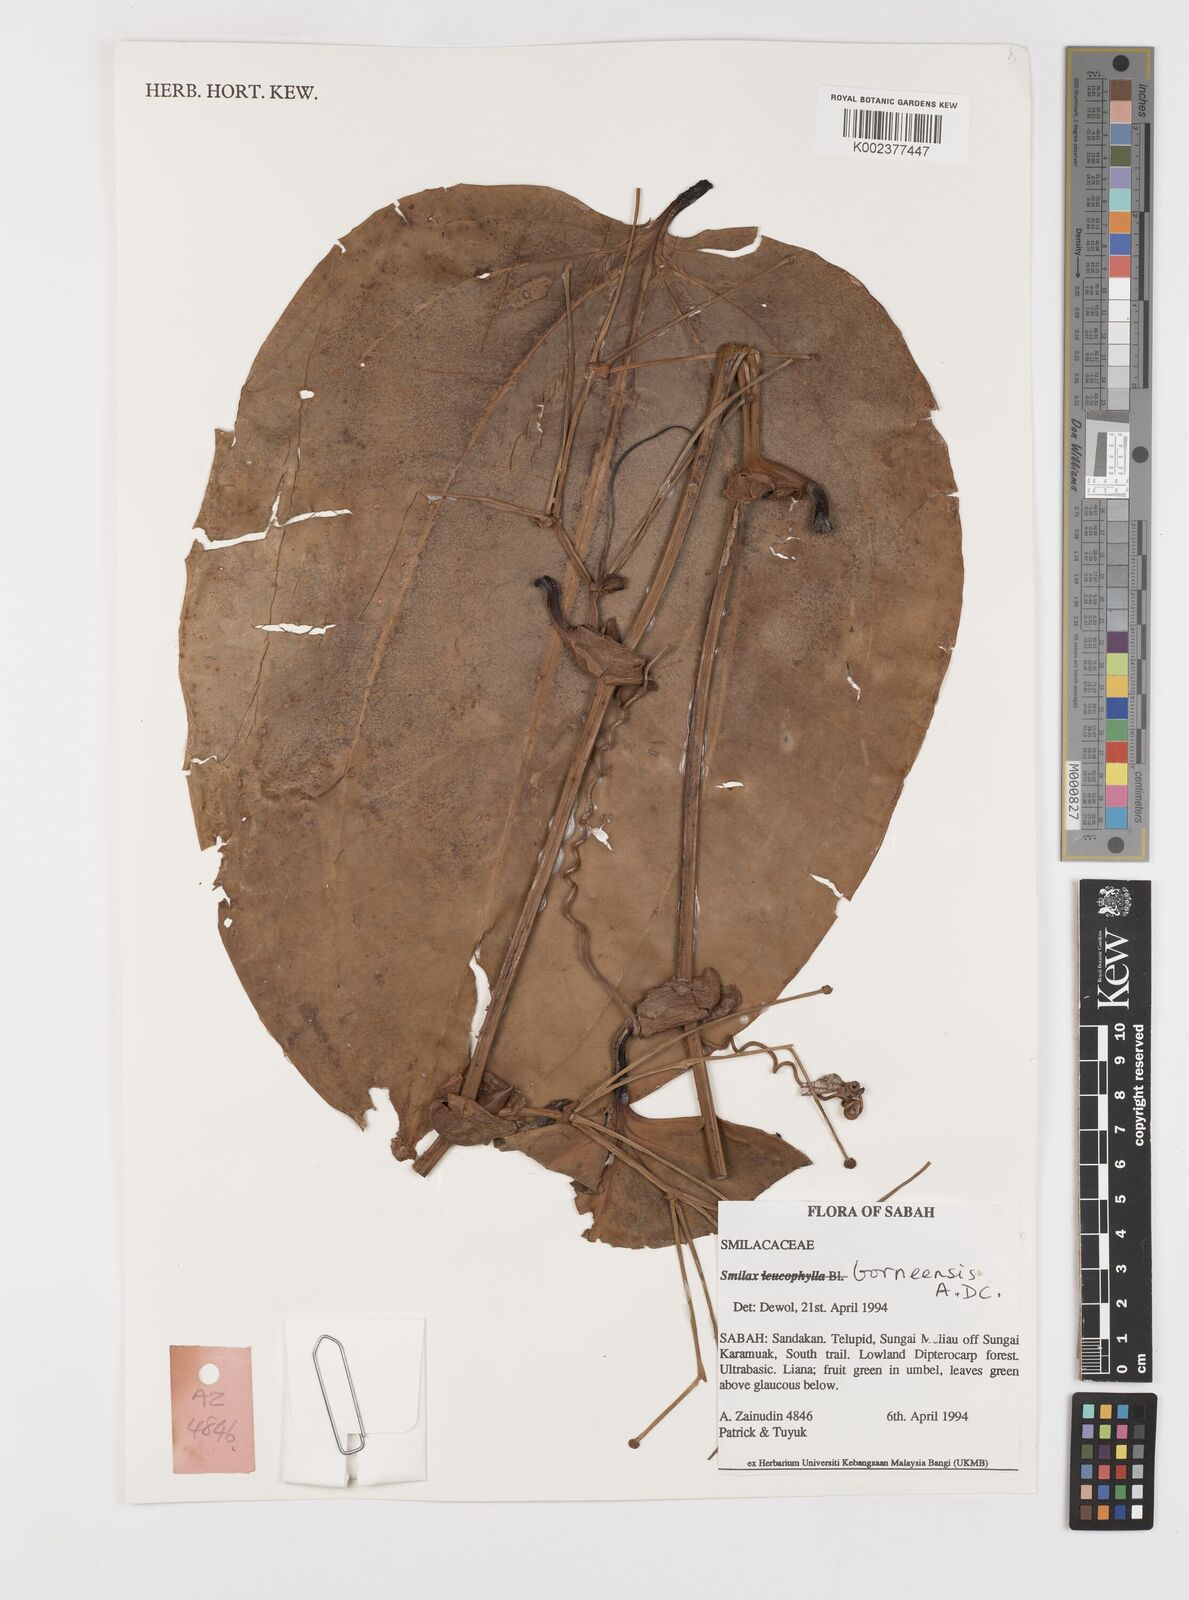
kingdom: Plantae
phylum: Tracheophyta
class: Liliopsida
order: Liliales
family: Smilacaceae
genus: Smilax
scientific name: Smilax borneensis
